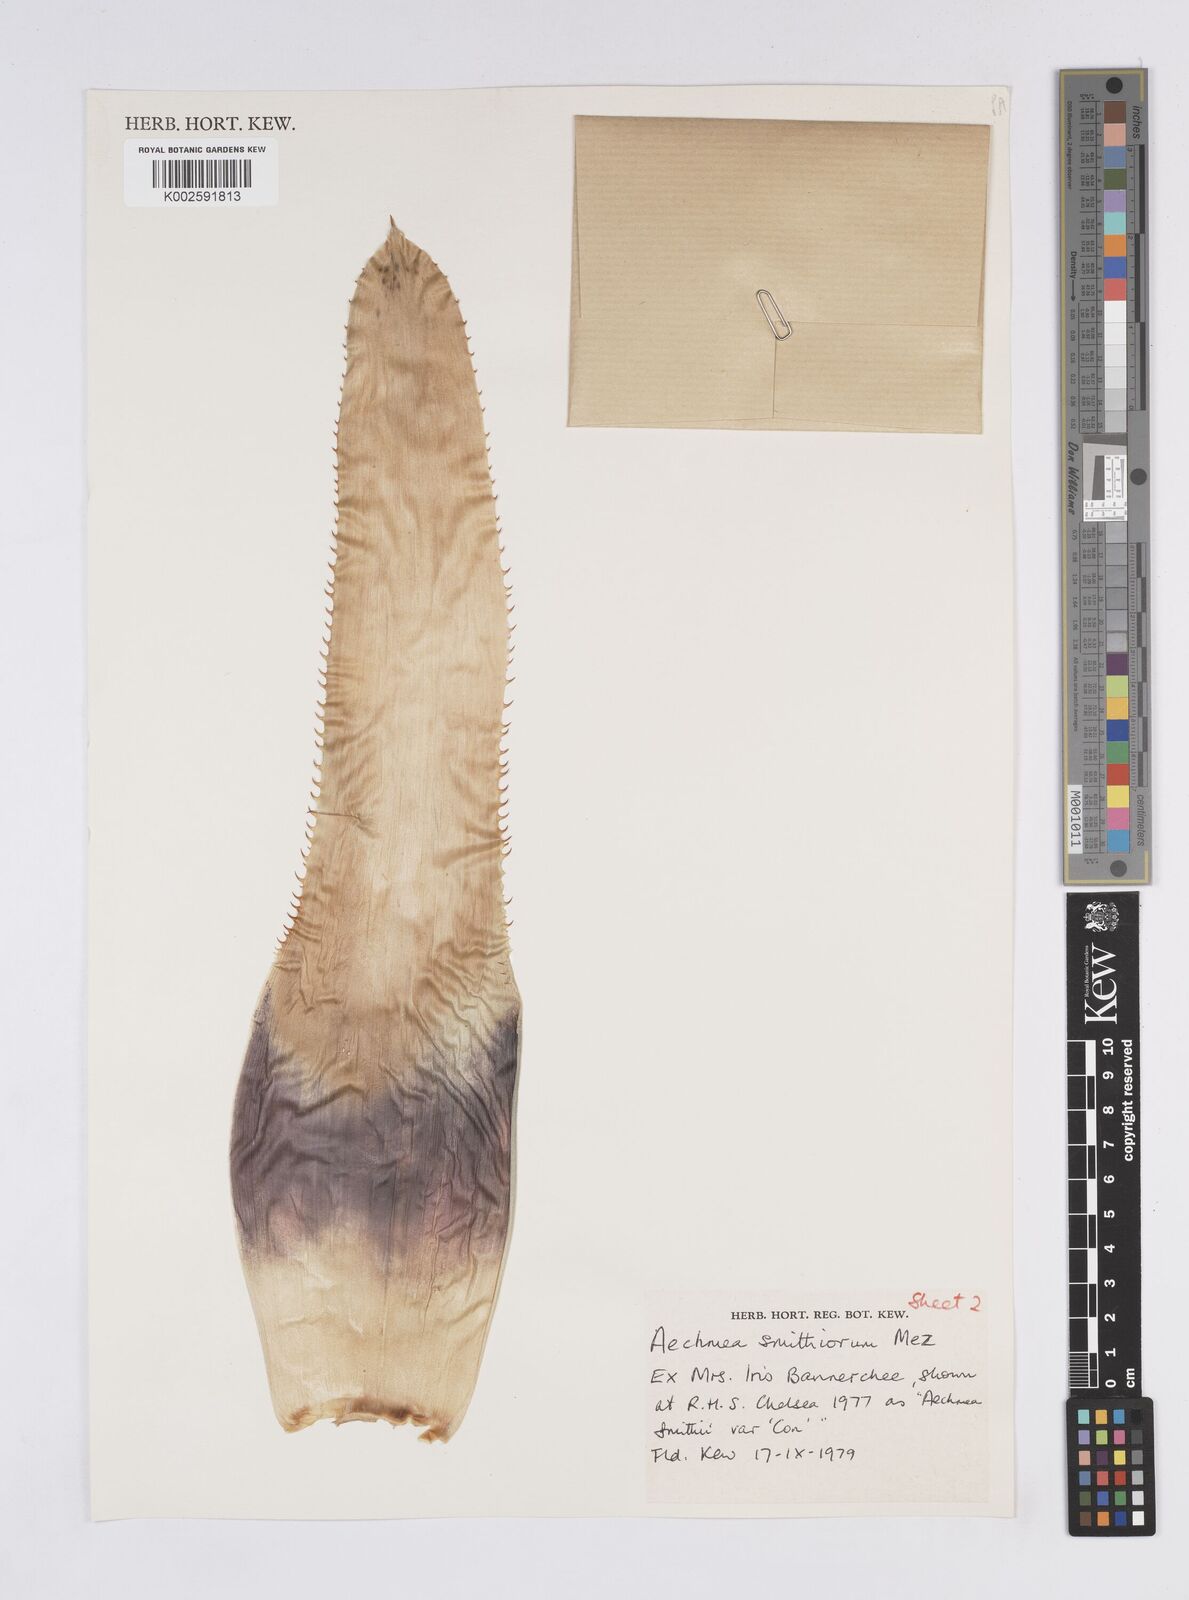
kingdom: Plantae
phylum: Tracheophyta
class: Liliopsida
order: Poales
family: Bromeliaceae
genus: Aechmea
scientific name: Aechmea smithiorum
